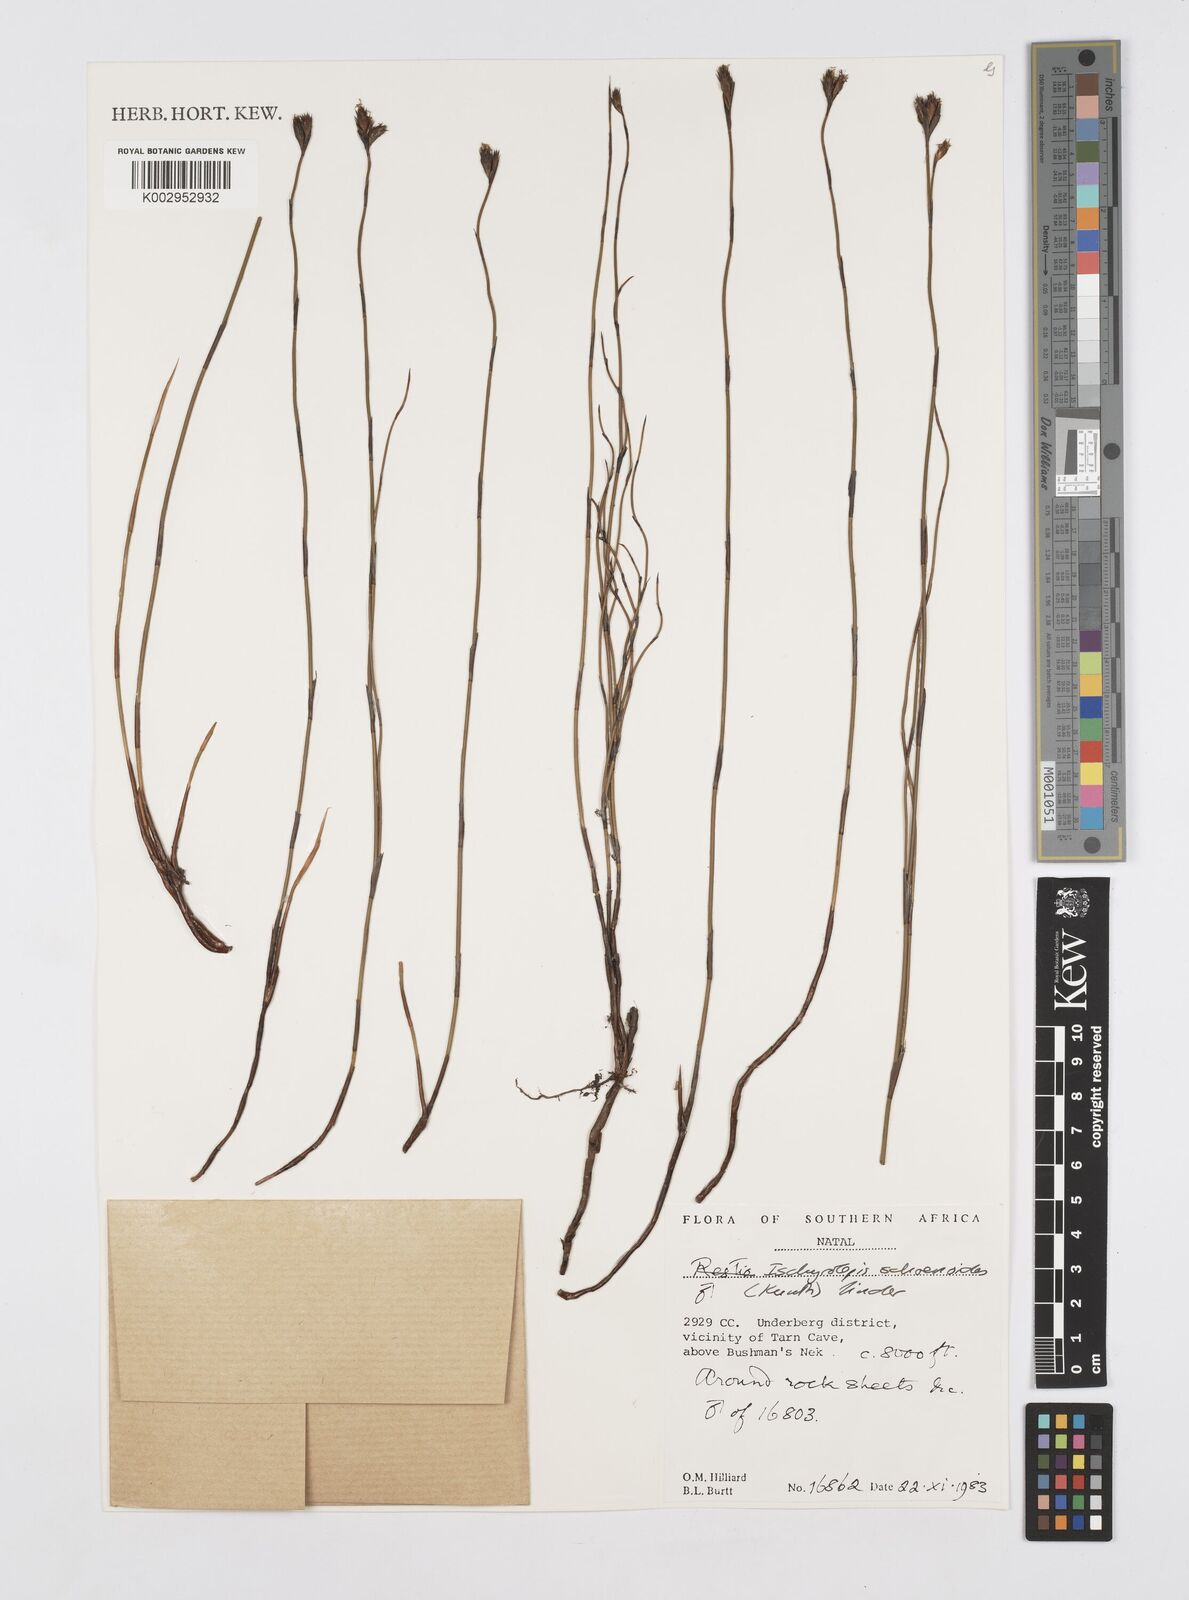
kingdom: Plantae
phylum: Tracheophyta
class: Liliopsida
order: Poales
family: Restionaceae
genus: Restio
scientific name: Restio schoenoides
